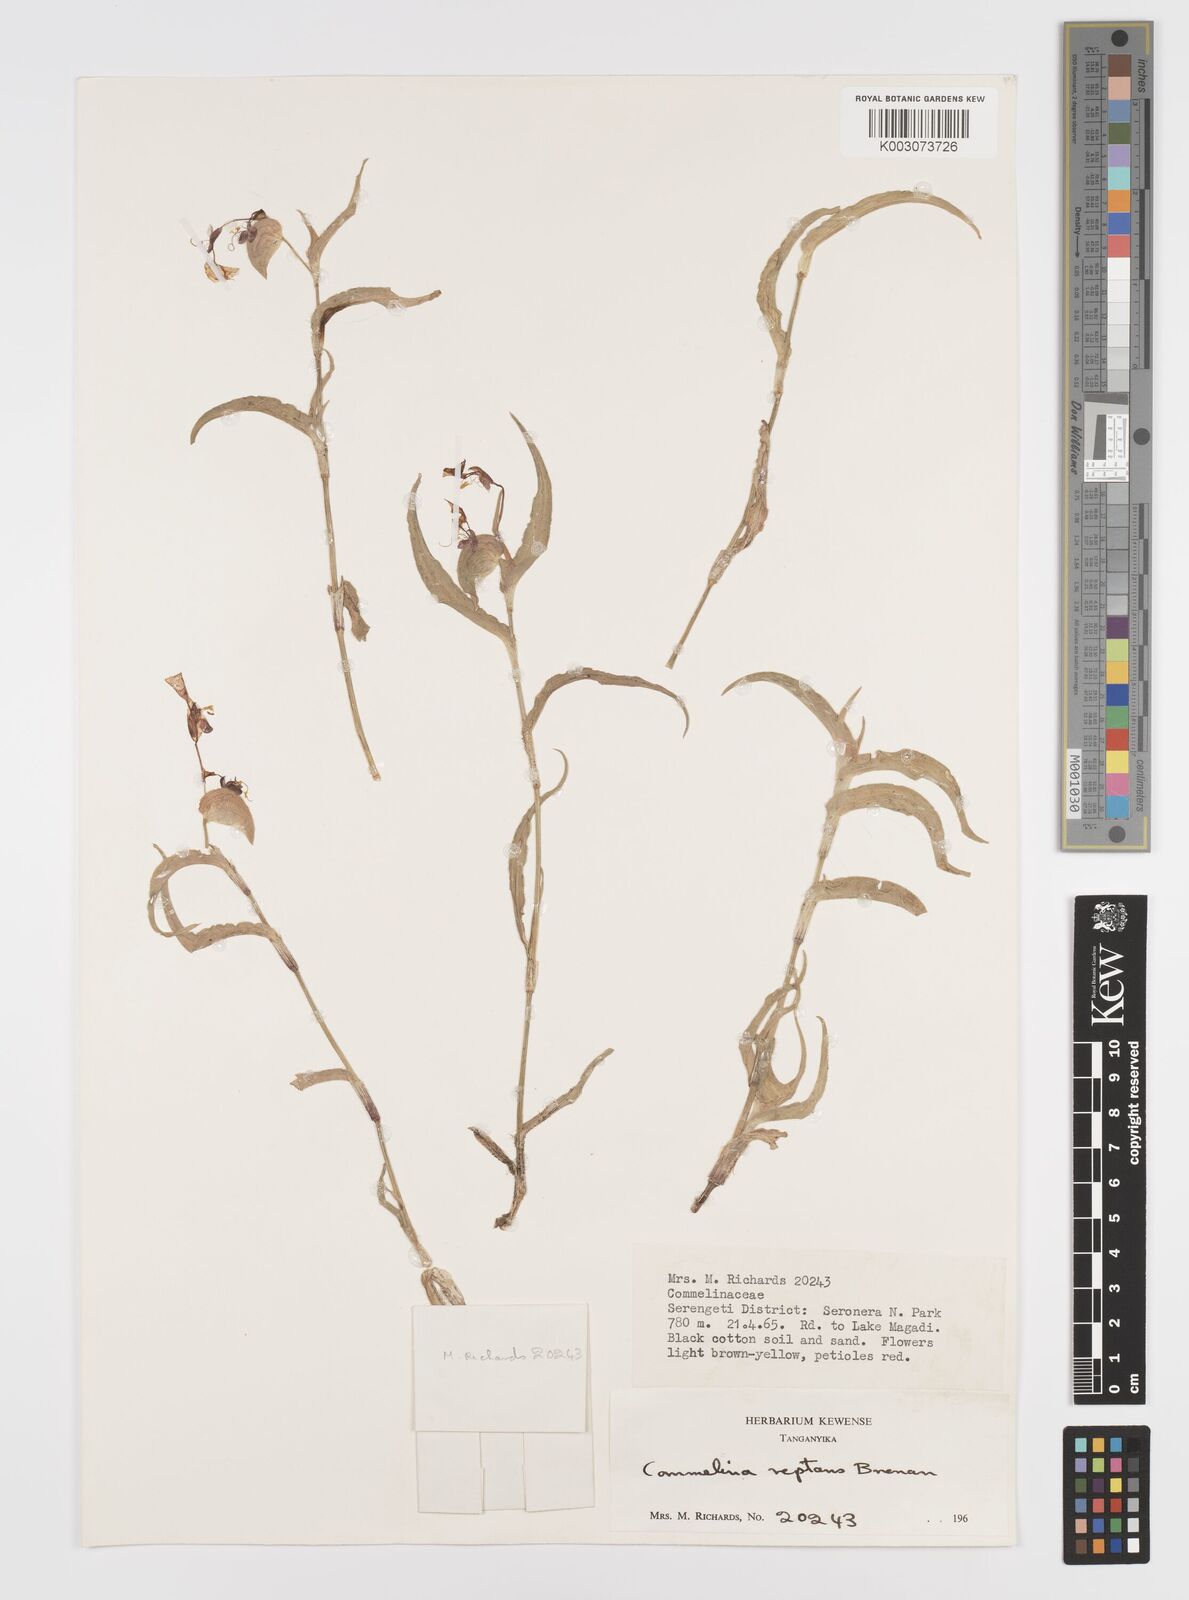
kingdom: Plantae
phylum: Tracheophyta
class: Liliopsida
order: Commelinales
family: Commelinaceae
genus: Commelina
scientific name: Commelina reptans
